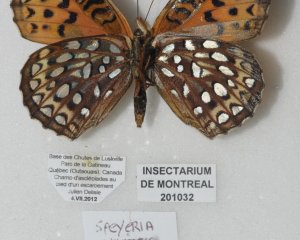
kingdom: Animalia
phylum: Arthropoda
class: Insecta
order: Lepidoptera
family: Nymphalidae
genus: Speyeria
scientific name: Speyeria atlantis
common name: Atlantis Fritillary
